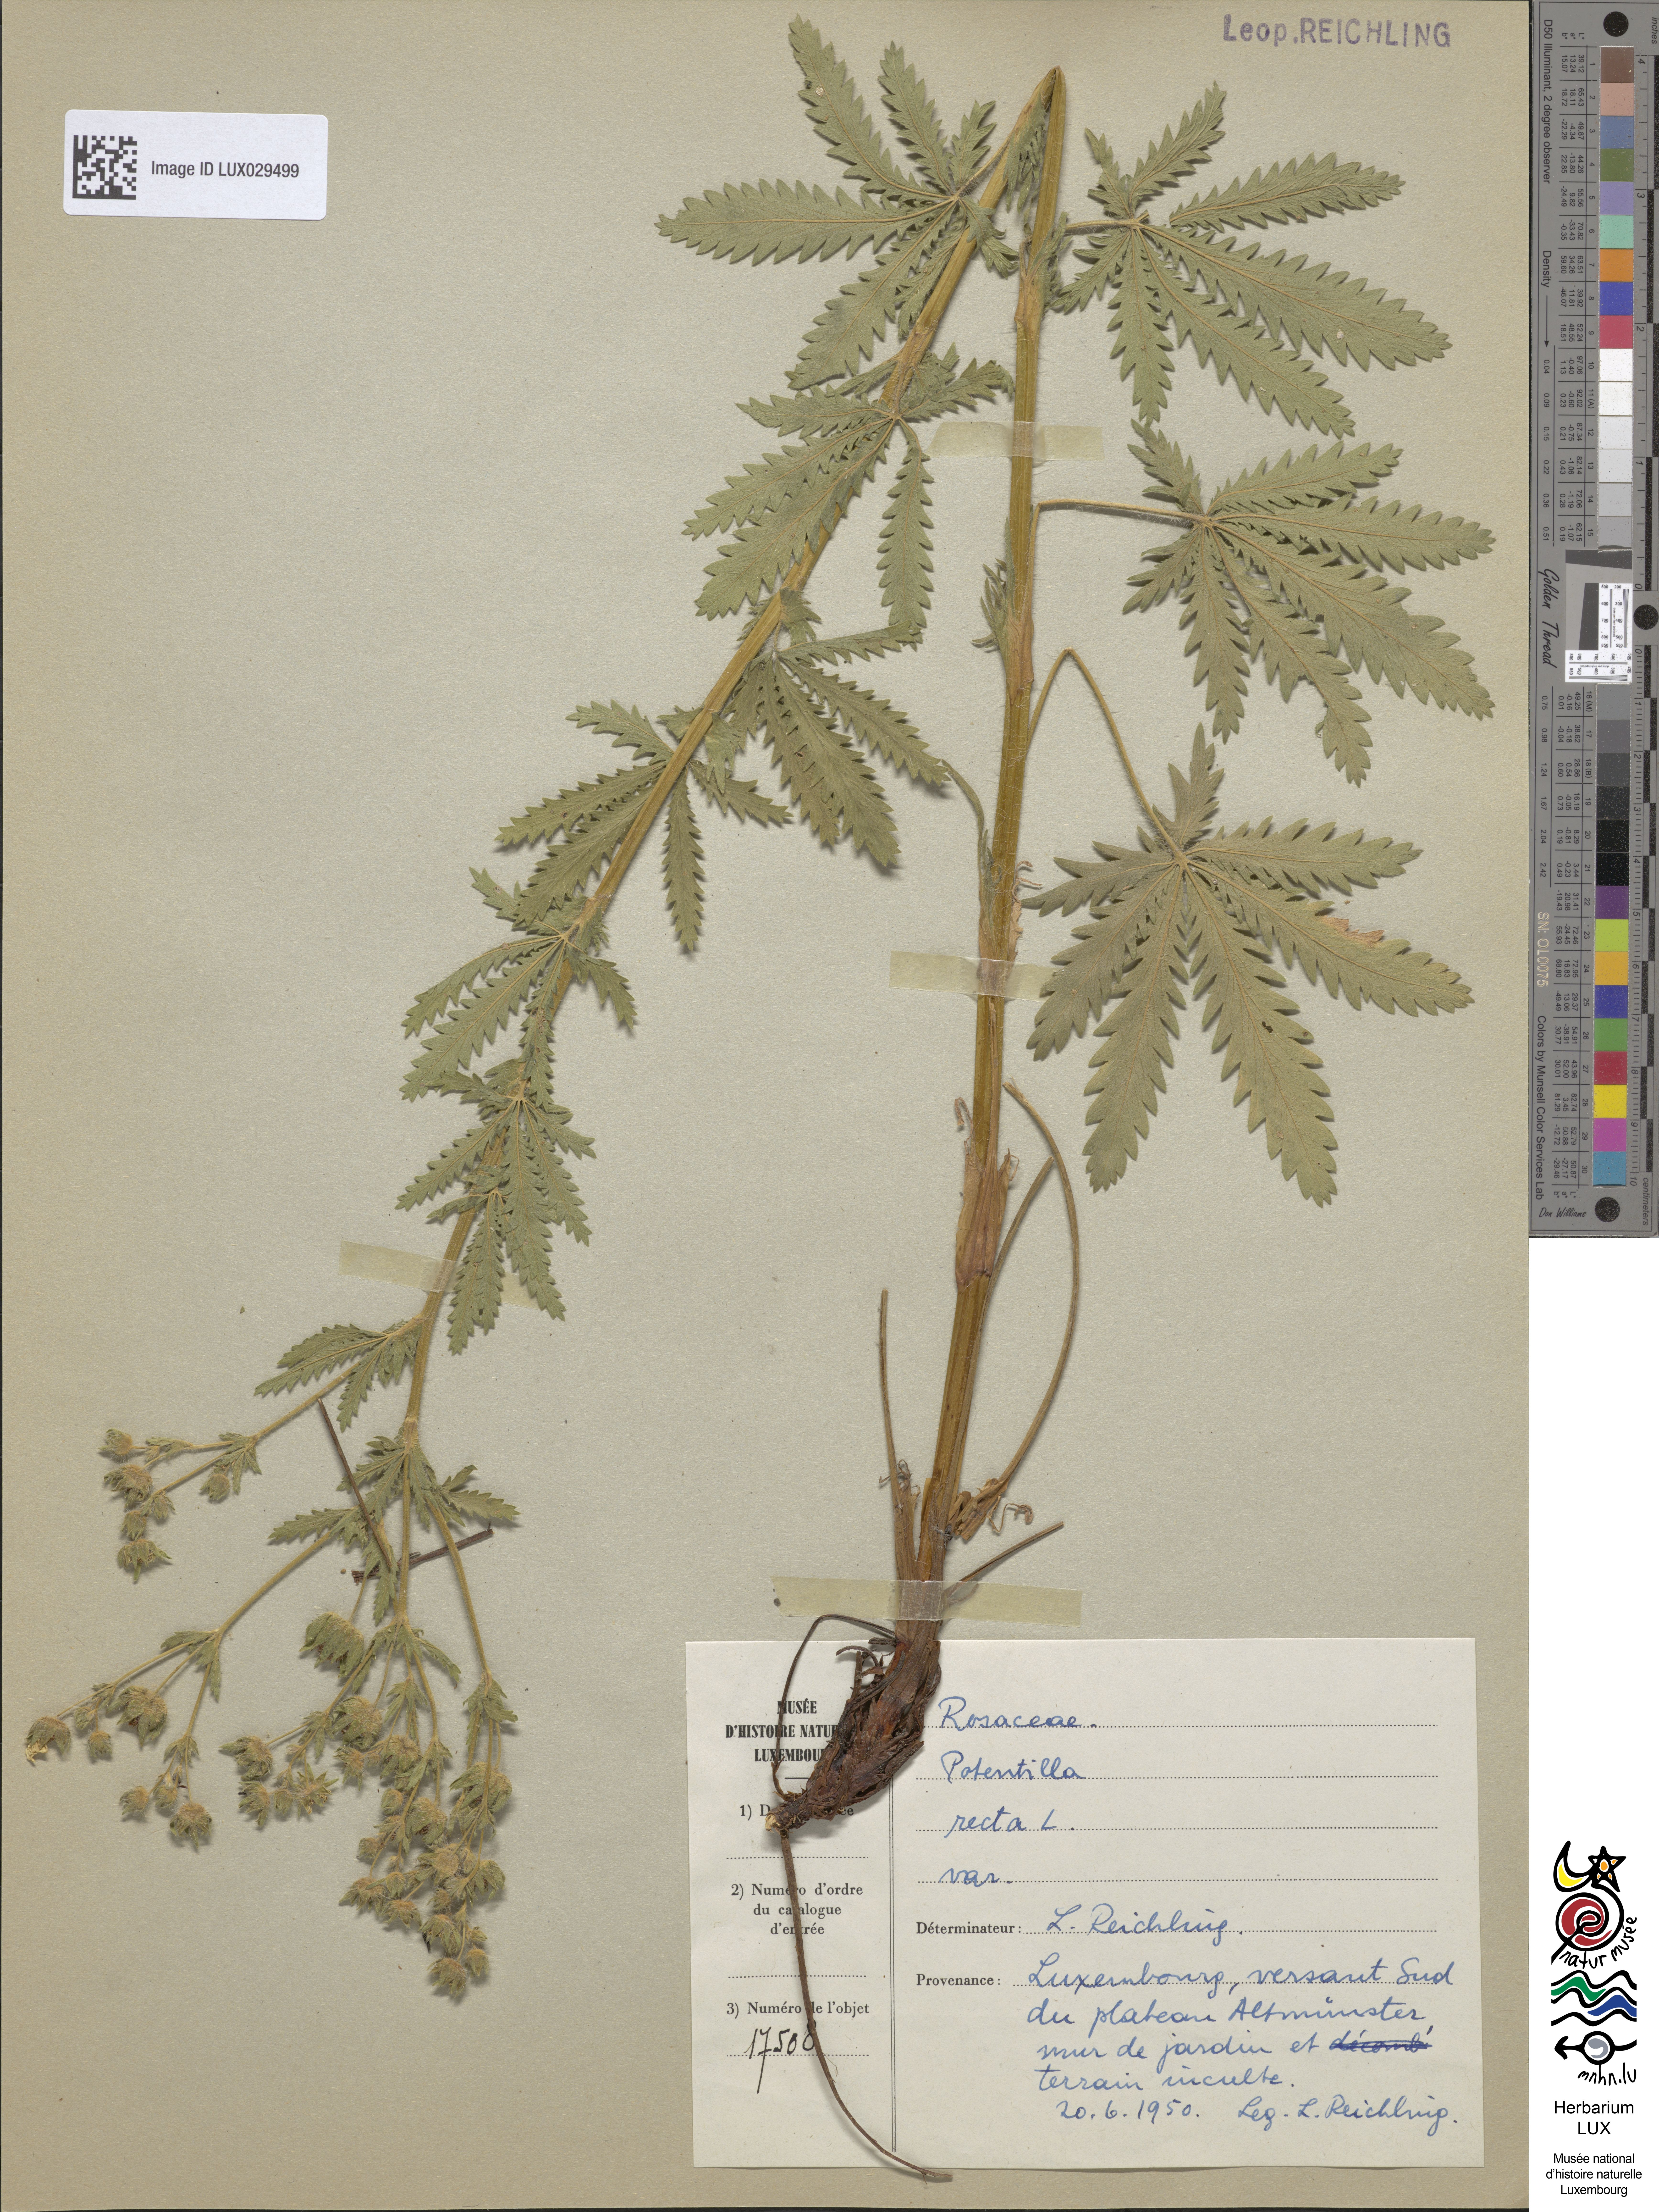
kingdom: Plantae
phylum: Tracheophyta
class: Magnoliopsida
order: Rosales
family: Rosaceae
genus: Potentilla
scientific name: Potentilla recta
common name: Sulphur cinquefoil
